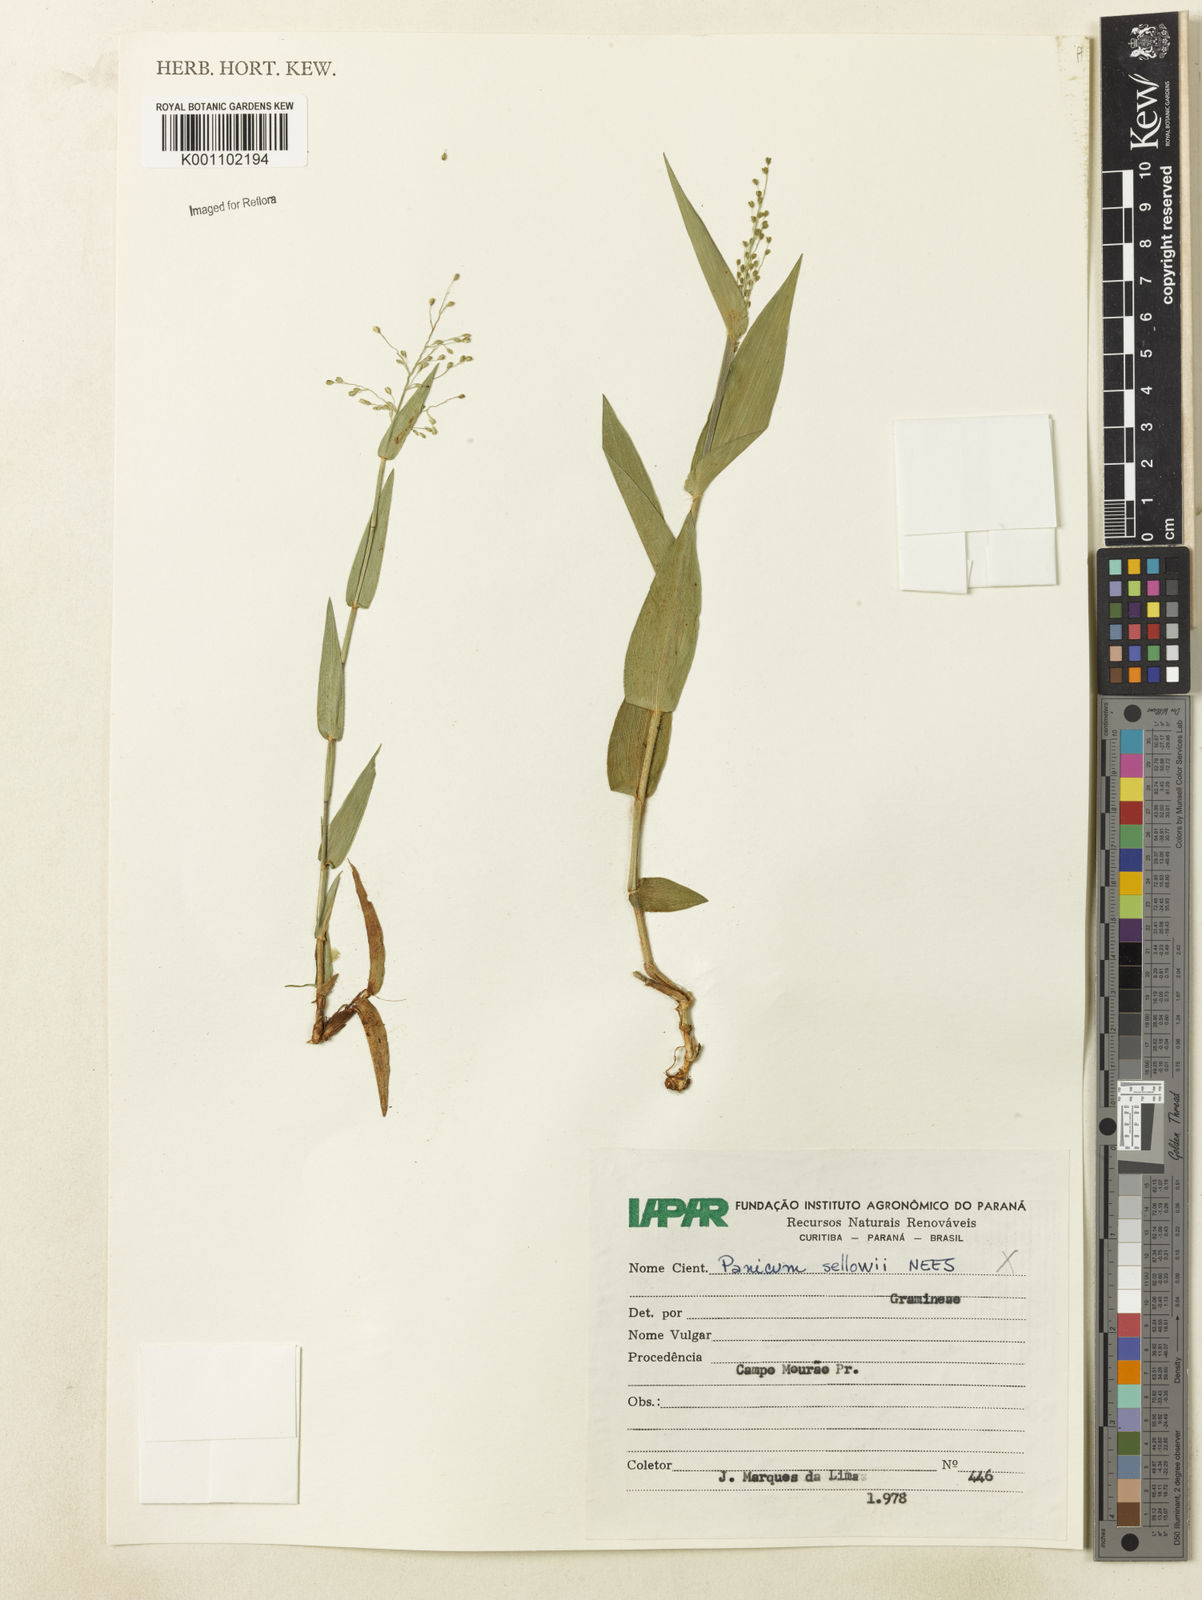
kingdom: Plantae
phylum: Tracheophyta
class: Liliopsida
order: Poales
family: Poaceae
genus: Dichanthelium
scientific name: Dichanthelium sabulorum
